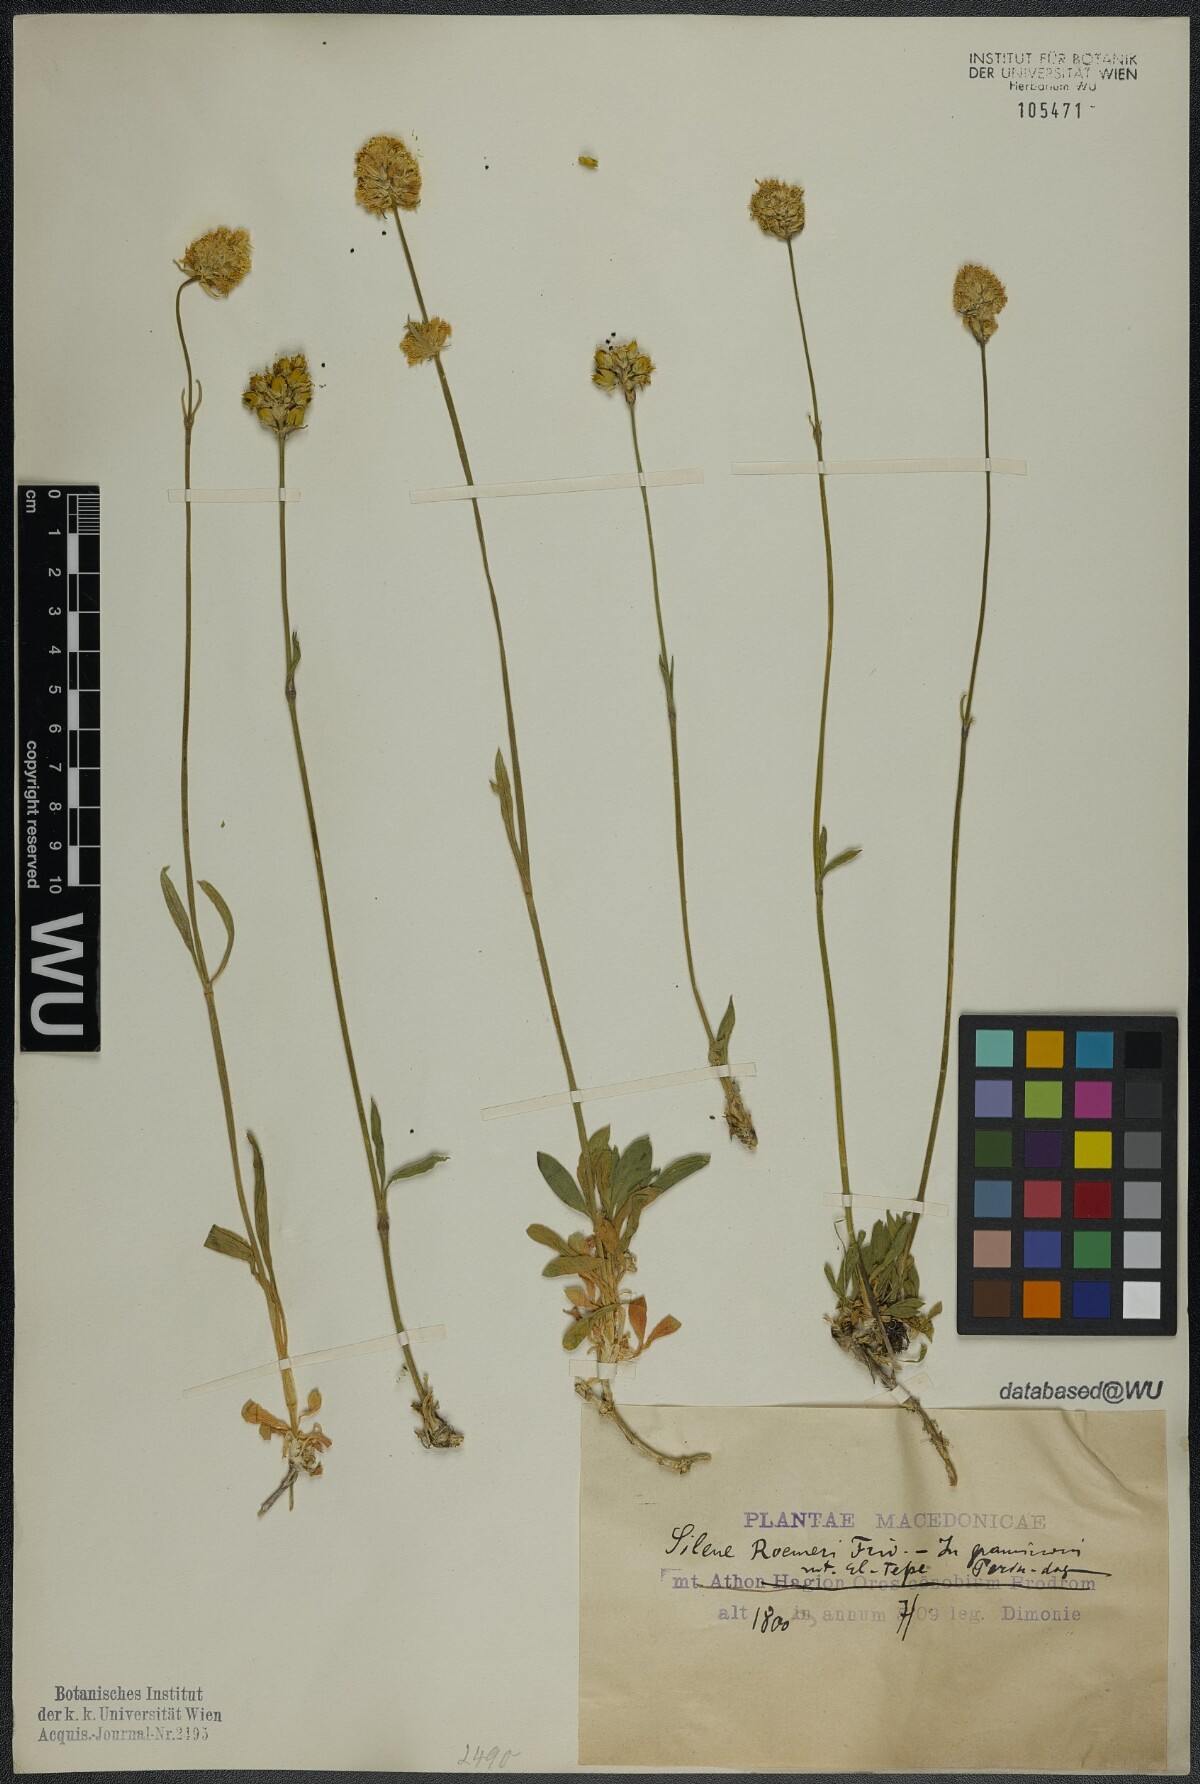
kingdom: Plantae
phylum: Tracheophyta
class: Magnoliopsida
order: Caryophyllales
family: Caryophyllaceae
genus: Silene
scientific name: Silene roemeri
